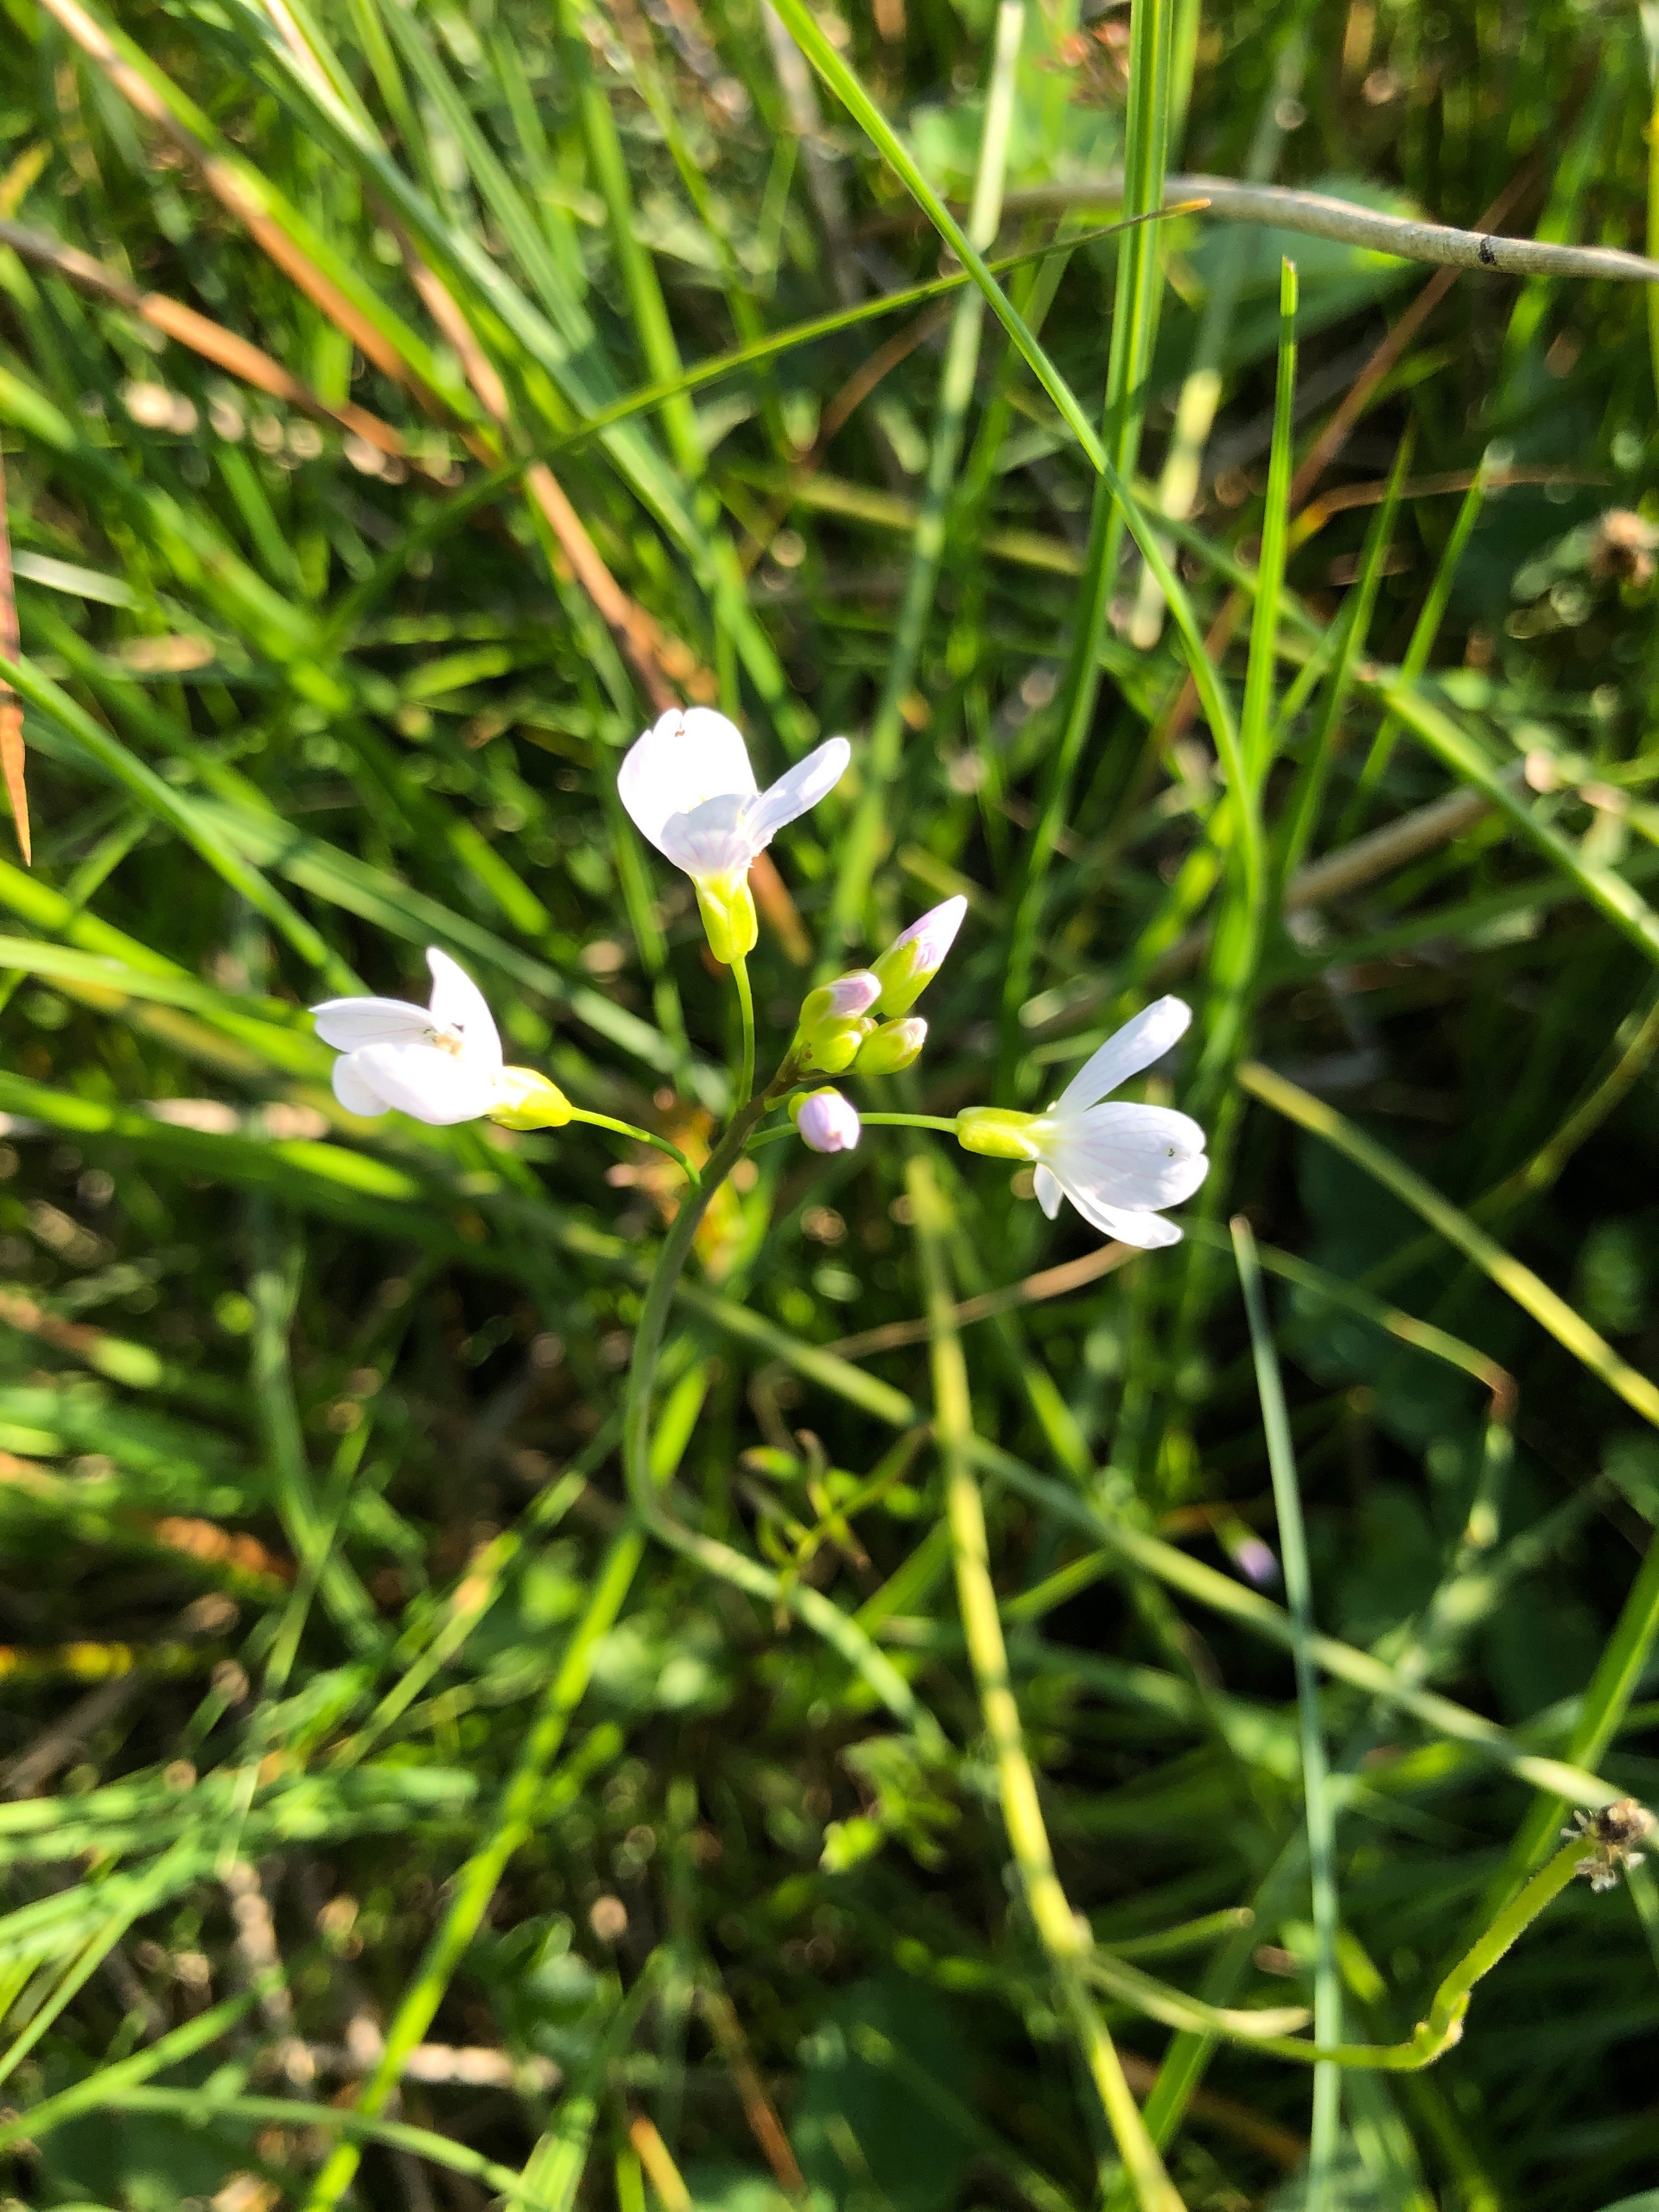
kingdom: Plantae
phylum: Tracheophyta
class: Magnoliopsida
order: Brassicales
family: Brassicaceae
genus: Cardamine
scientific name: Cardamine pratensis
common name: Engkarse
